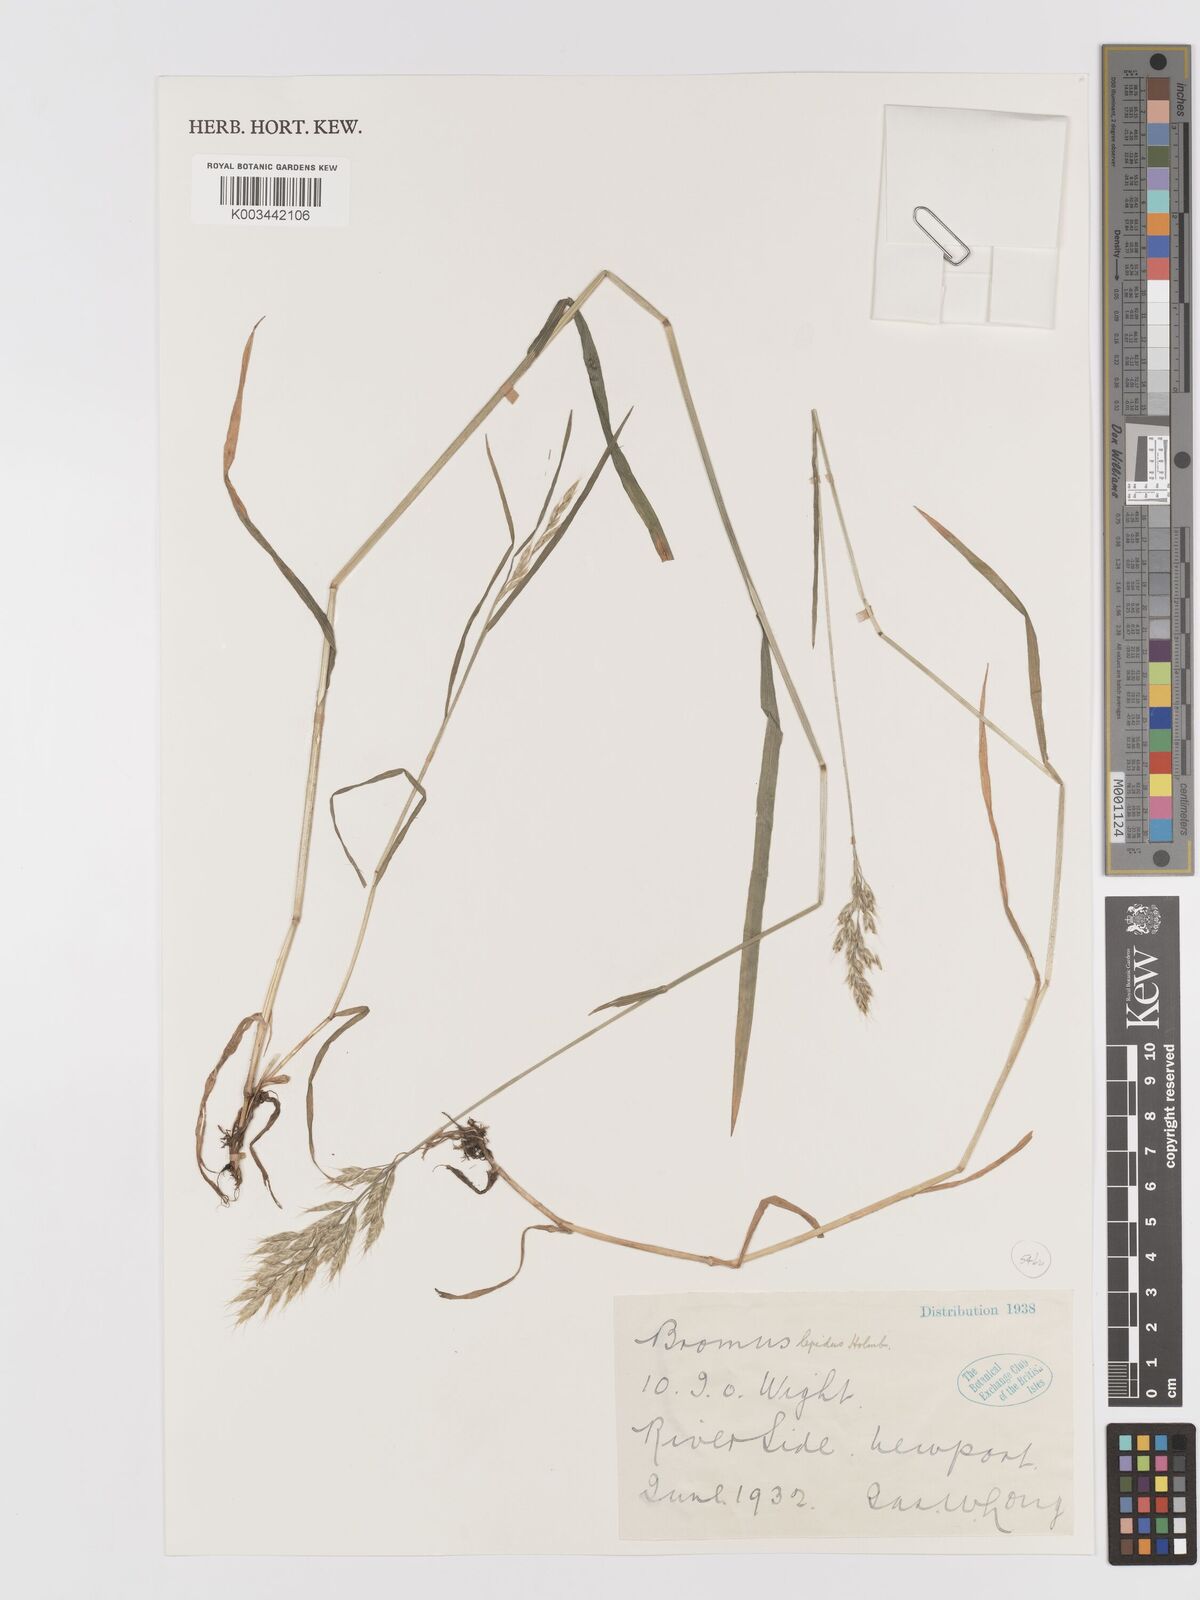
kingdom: Plantae
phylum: Tracheophyta
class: Liliopsida
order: Poales
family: Poaceae
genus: Bromus
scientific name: Bromus lepidus
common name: Slender soft-brome
